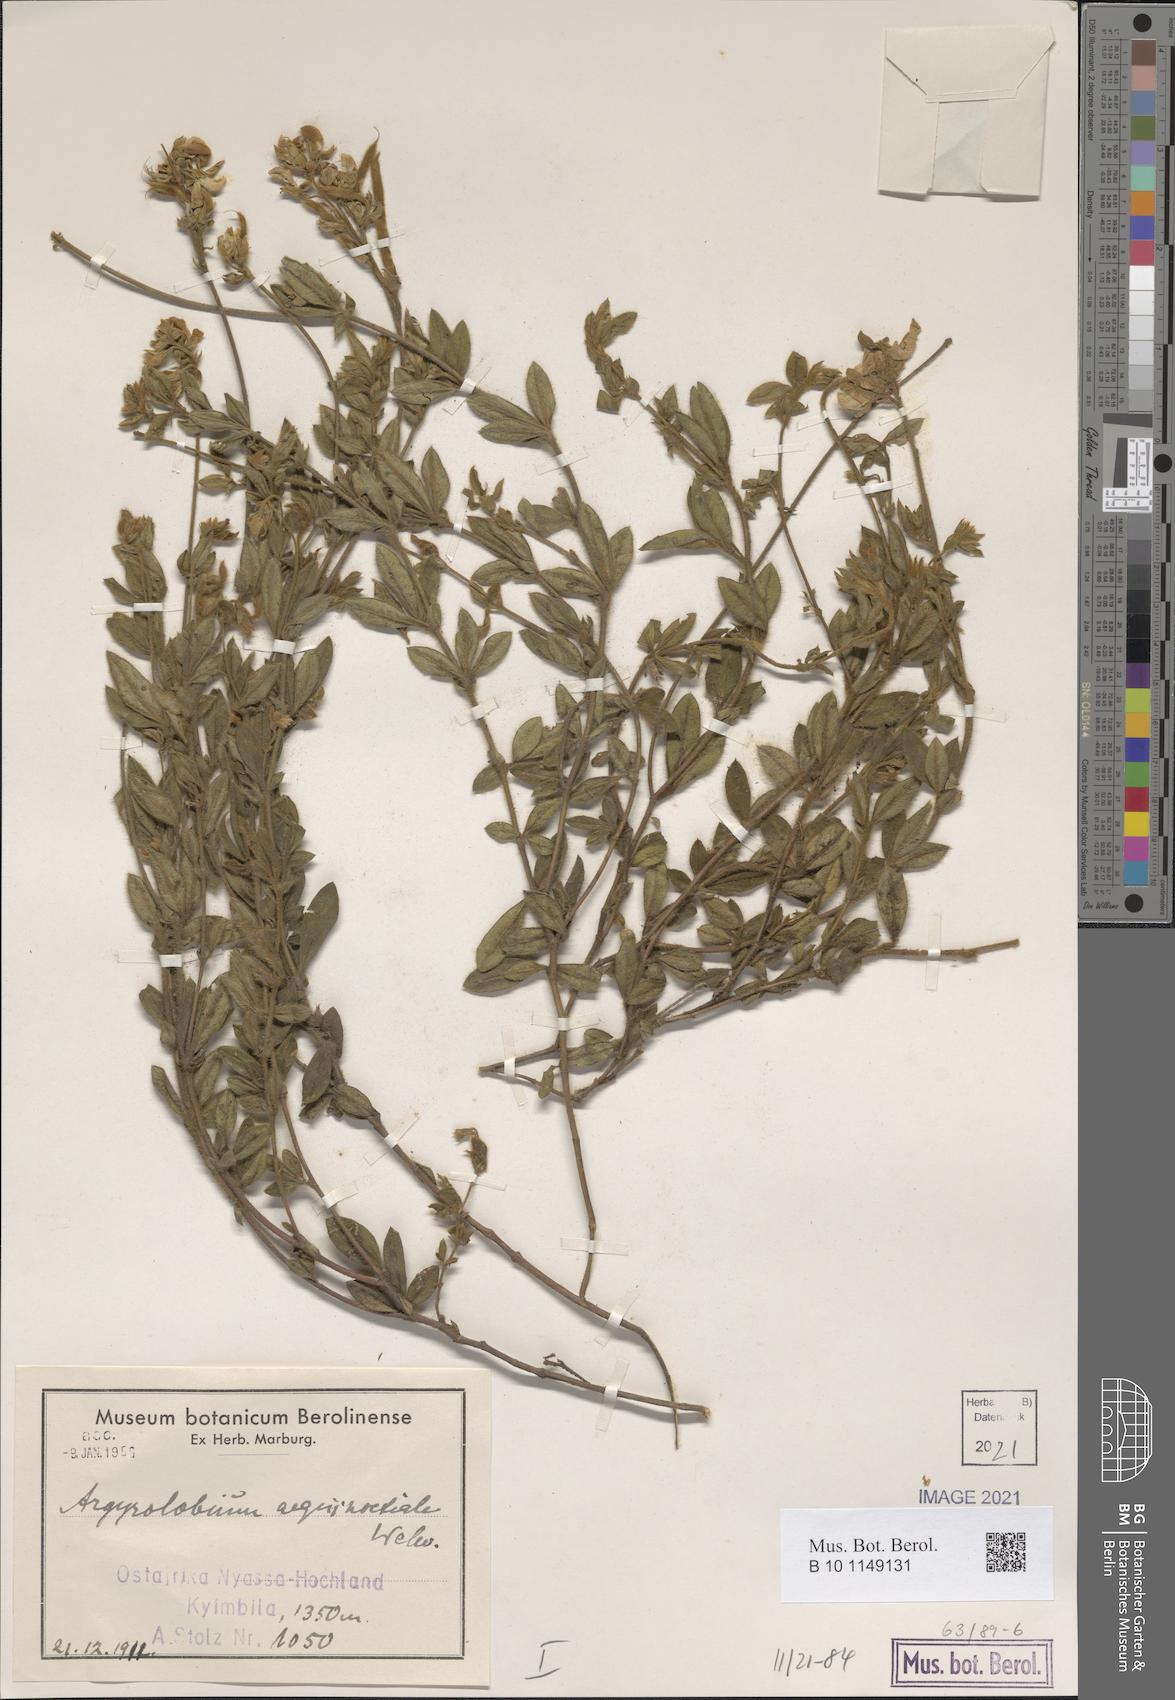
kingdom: Plantae
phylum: Tracheophyta
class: Magnoliopsida
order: Fabales
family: Fabaceae
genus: Argyrolobium
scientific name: Argyrolobium aequinoctiale
